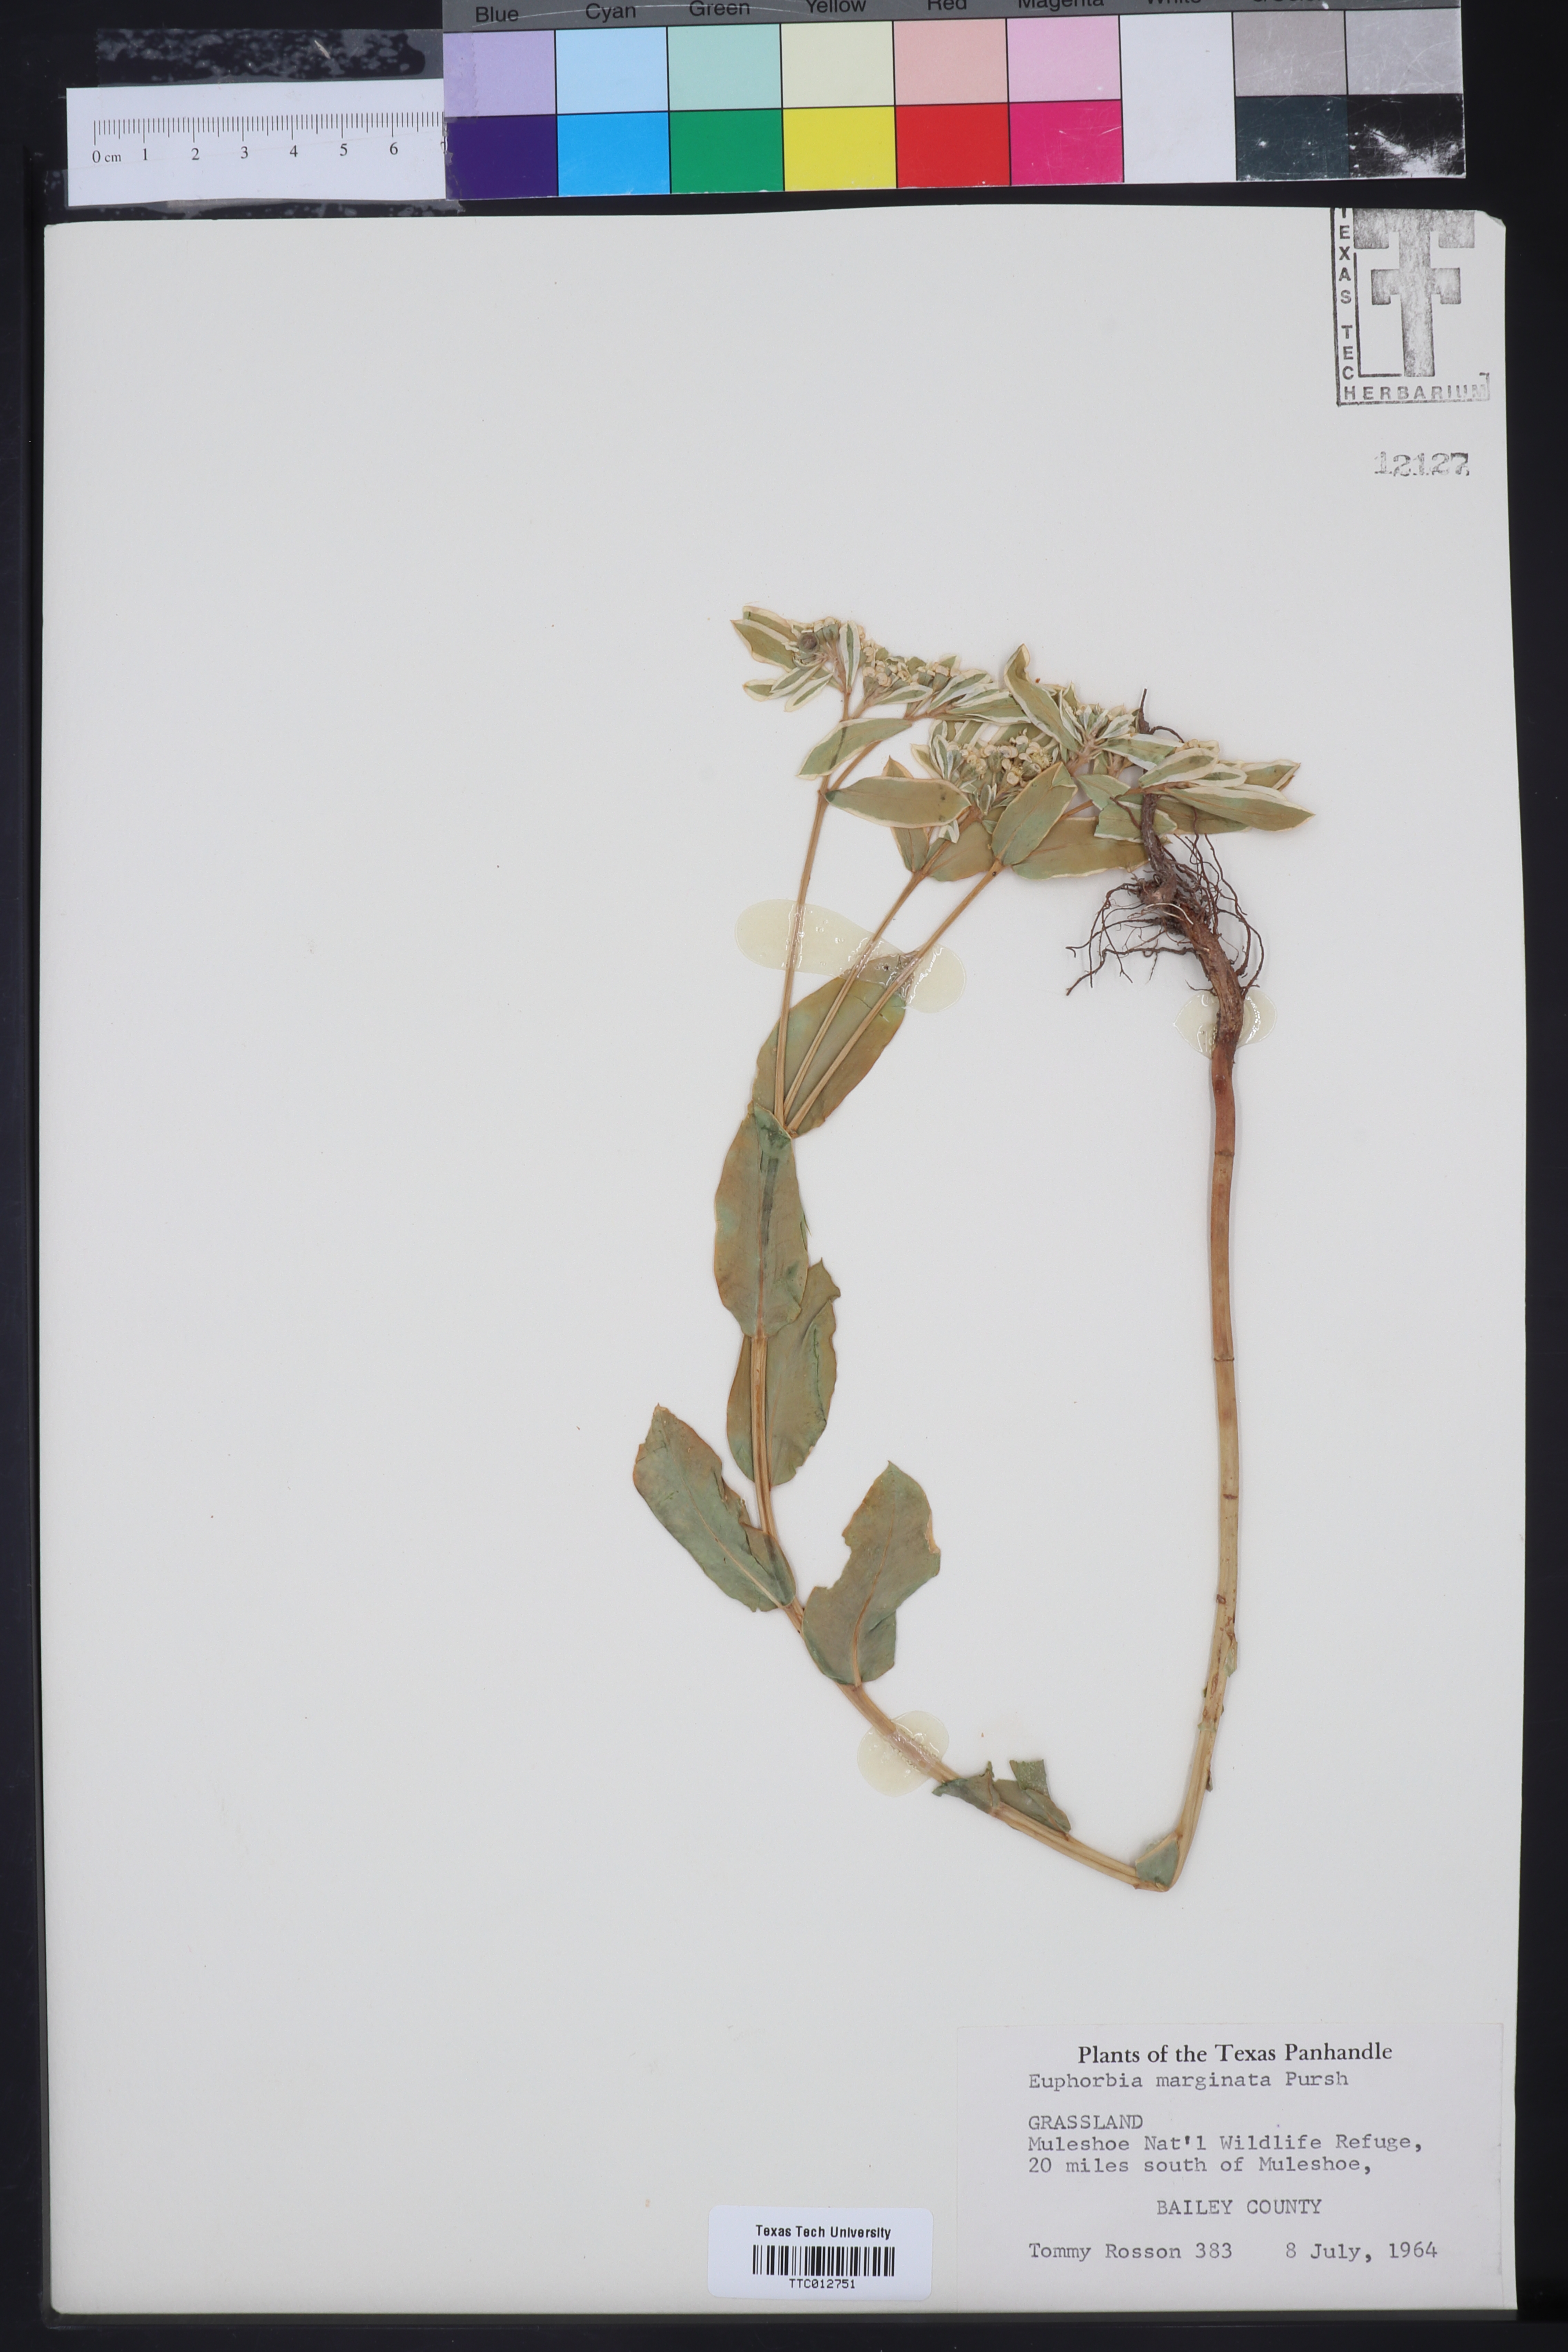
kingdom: Plantae
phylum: Tracheophyta
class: Magnoliopsida
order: Malpighiales
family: Euphorbiaceae
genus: Euphorbia
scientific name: Euphorbia marginata
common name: Ghostweed
